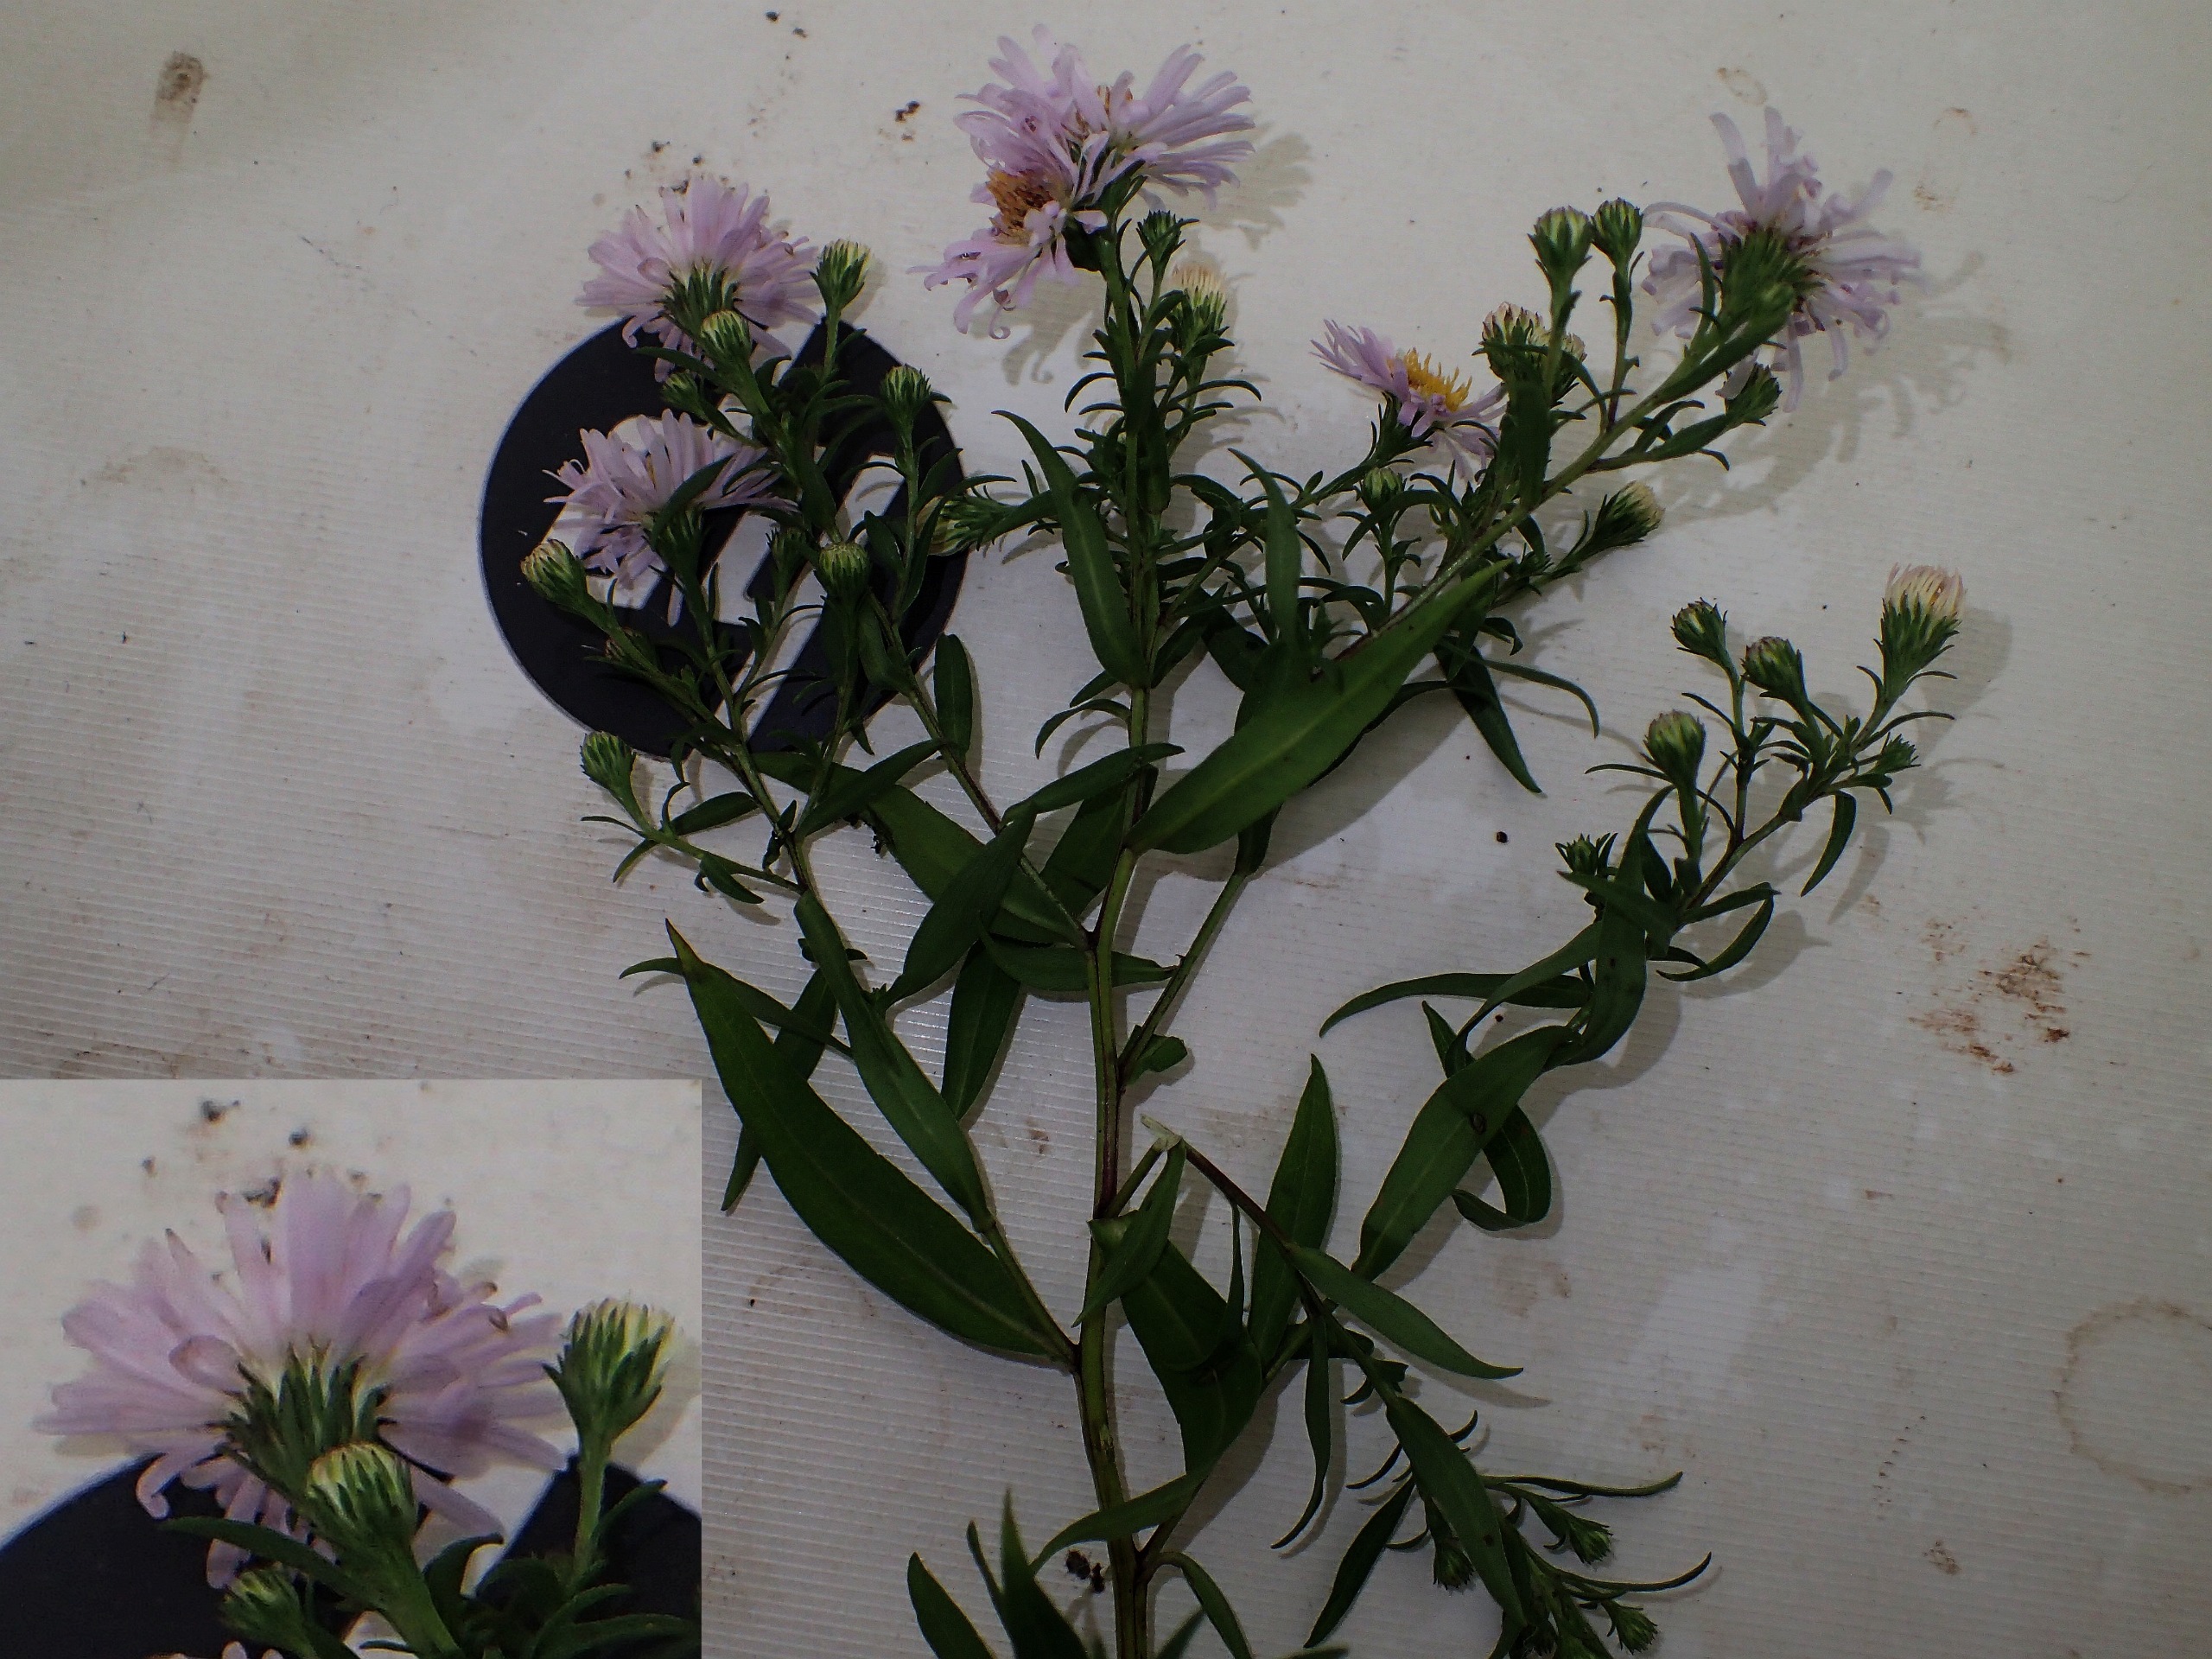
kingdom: Plantae
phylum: Tracheophyta
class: Magnoliopsida
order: Asterales
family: Asteraceae
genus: Symphyotrichum
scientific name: Symphyotrichum lanceolatum
